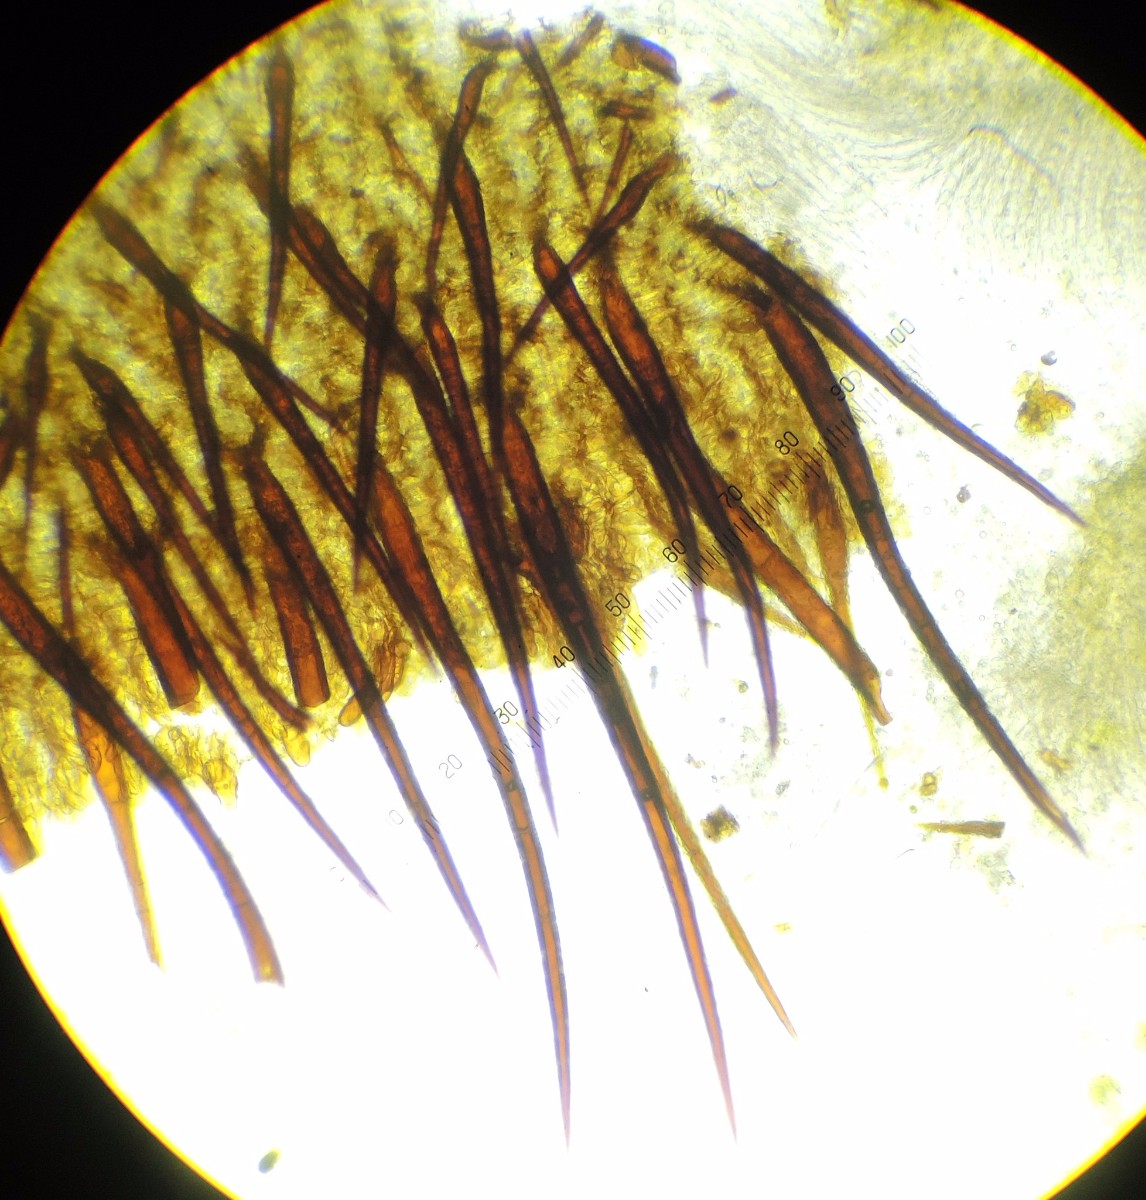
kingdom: Fungi
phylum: Ascomycota
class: Pezizomycetes
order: Pezizales
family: Pyronemataceae
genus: Scutellinia
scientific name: Scutellinia
